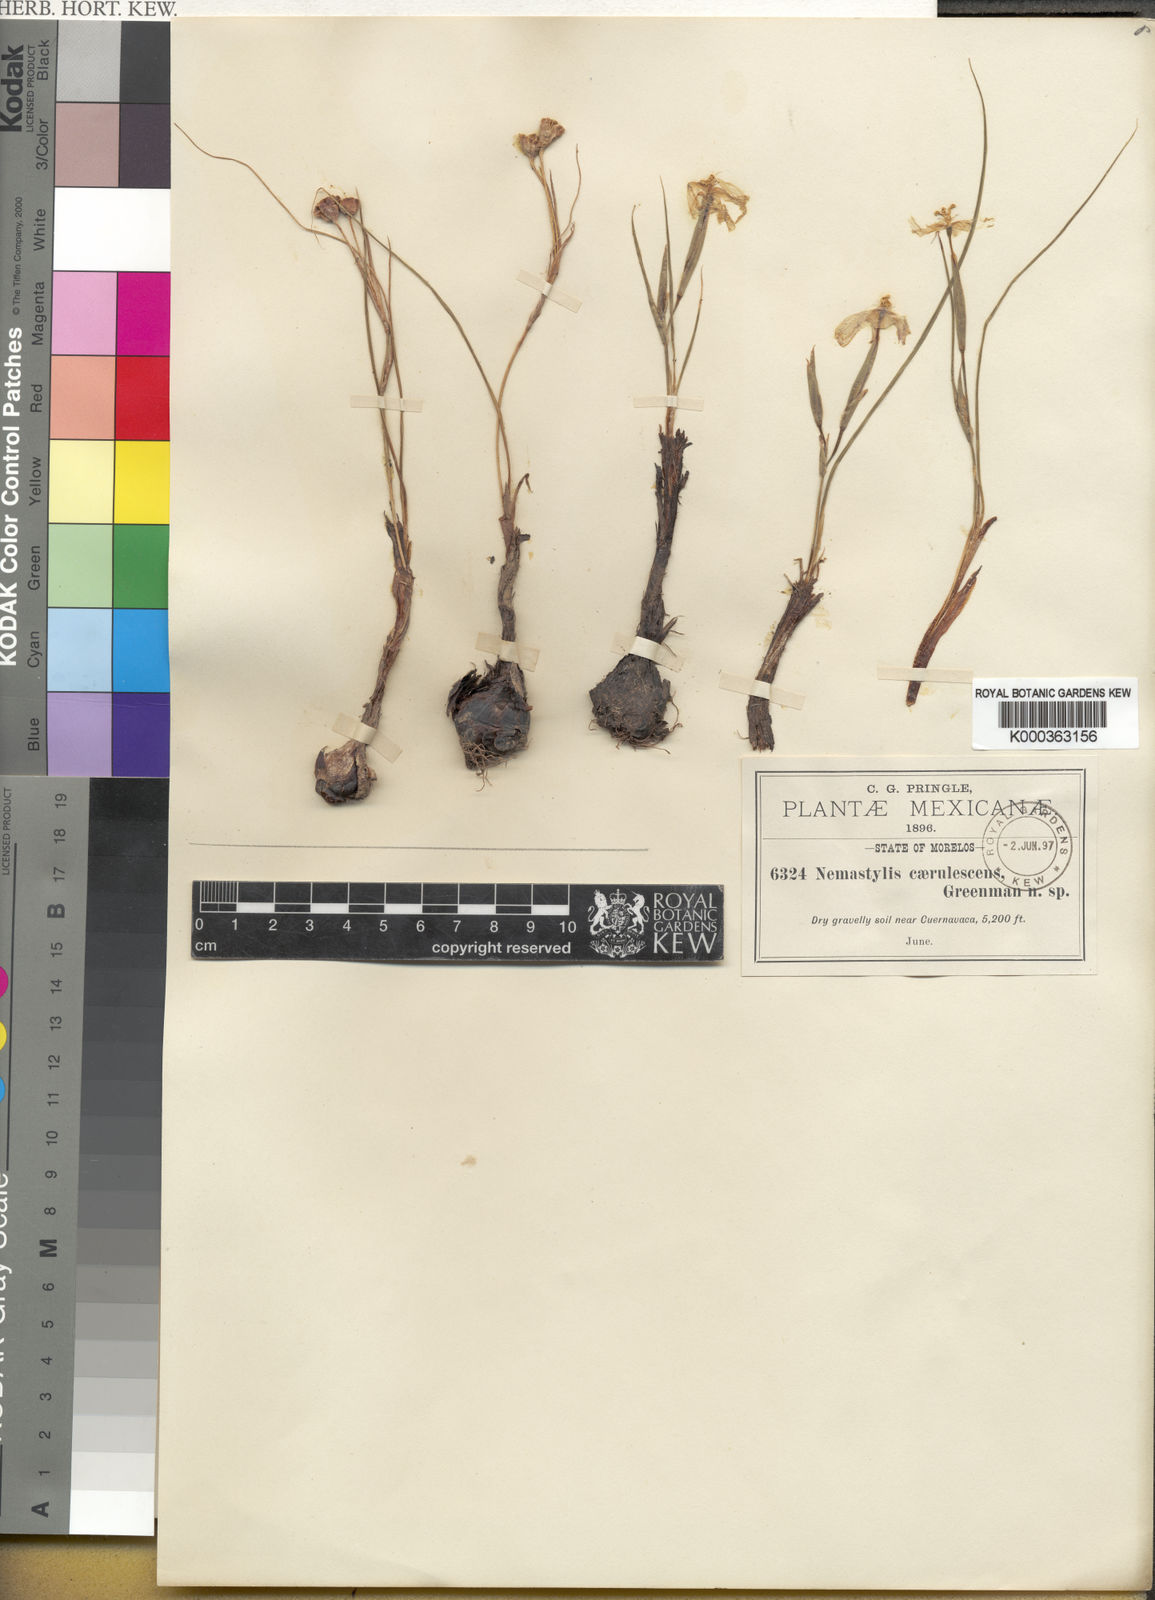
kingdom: Plantae
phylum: Tracheophyta
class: Liliopsida
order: Asparagales
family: Iridaceae
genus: Nemastylis
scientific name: Nemastylis tenuis
